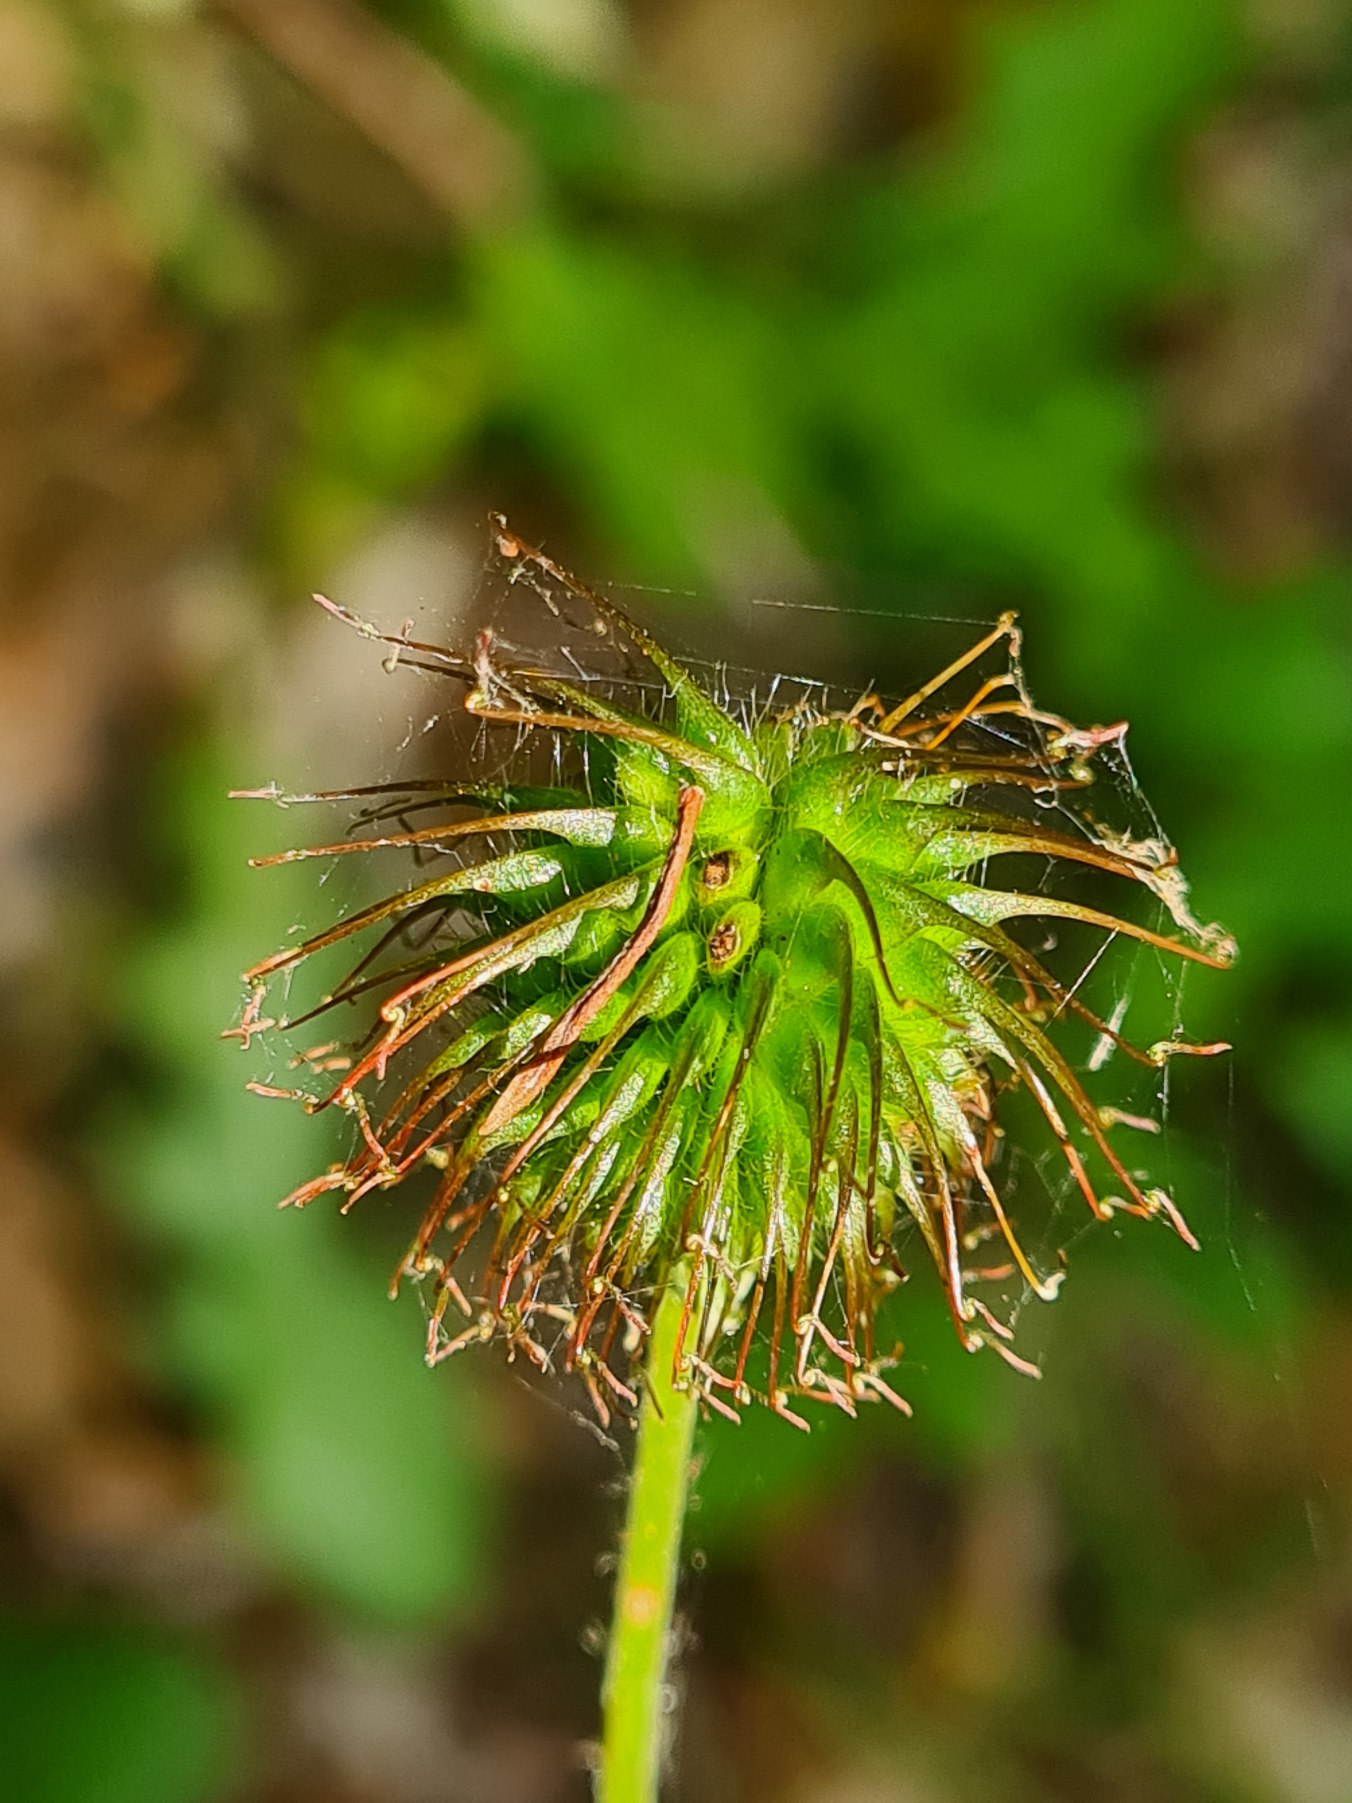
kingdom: Plantae
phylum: Tracheophyta
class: Magnoliopsida
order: Rosales
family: Rosaceae
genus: Geum
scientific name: Geum urbanum
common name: Feber-nellikerod
